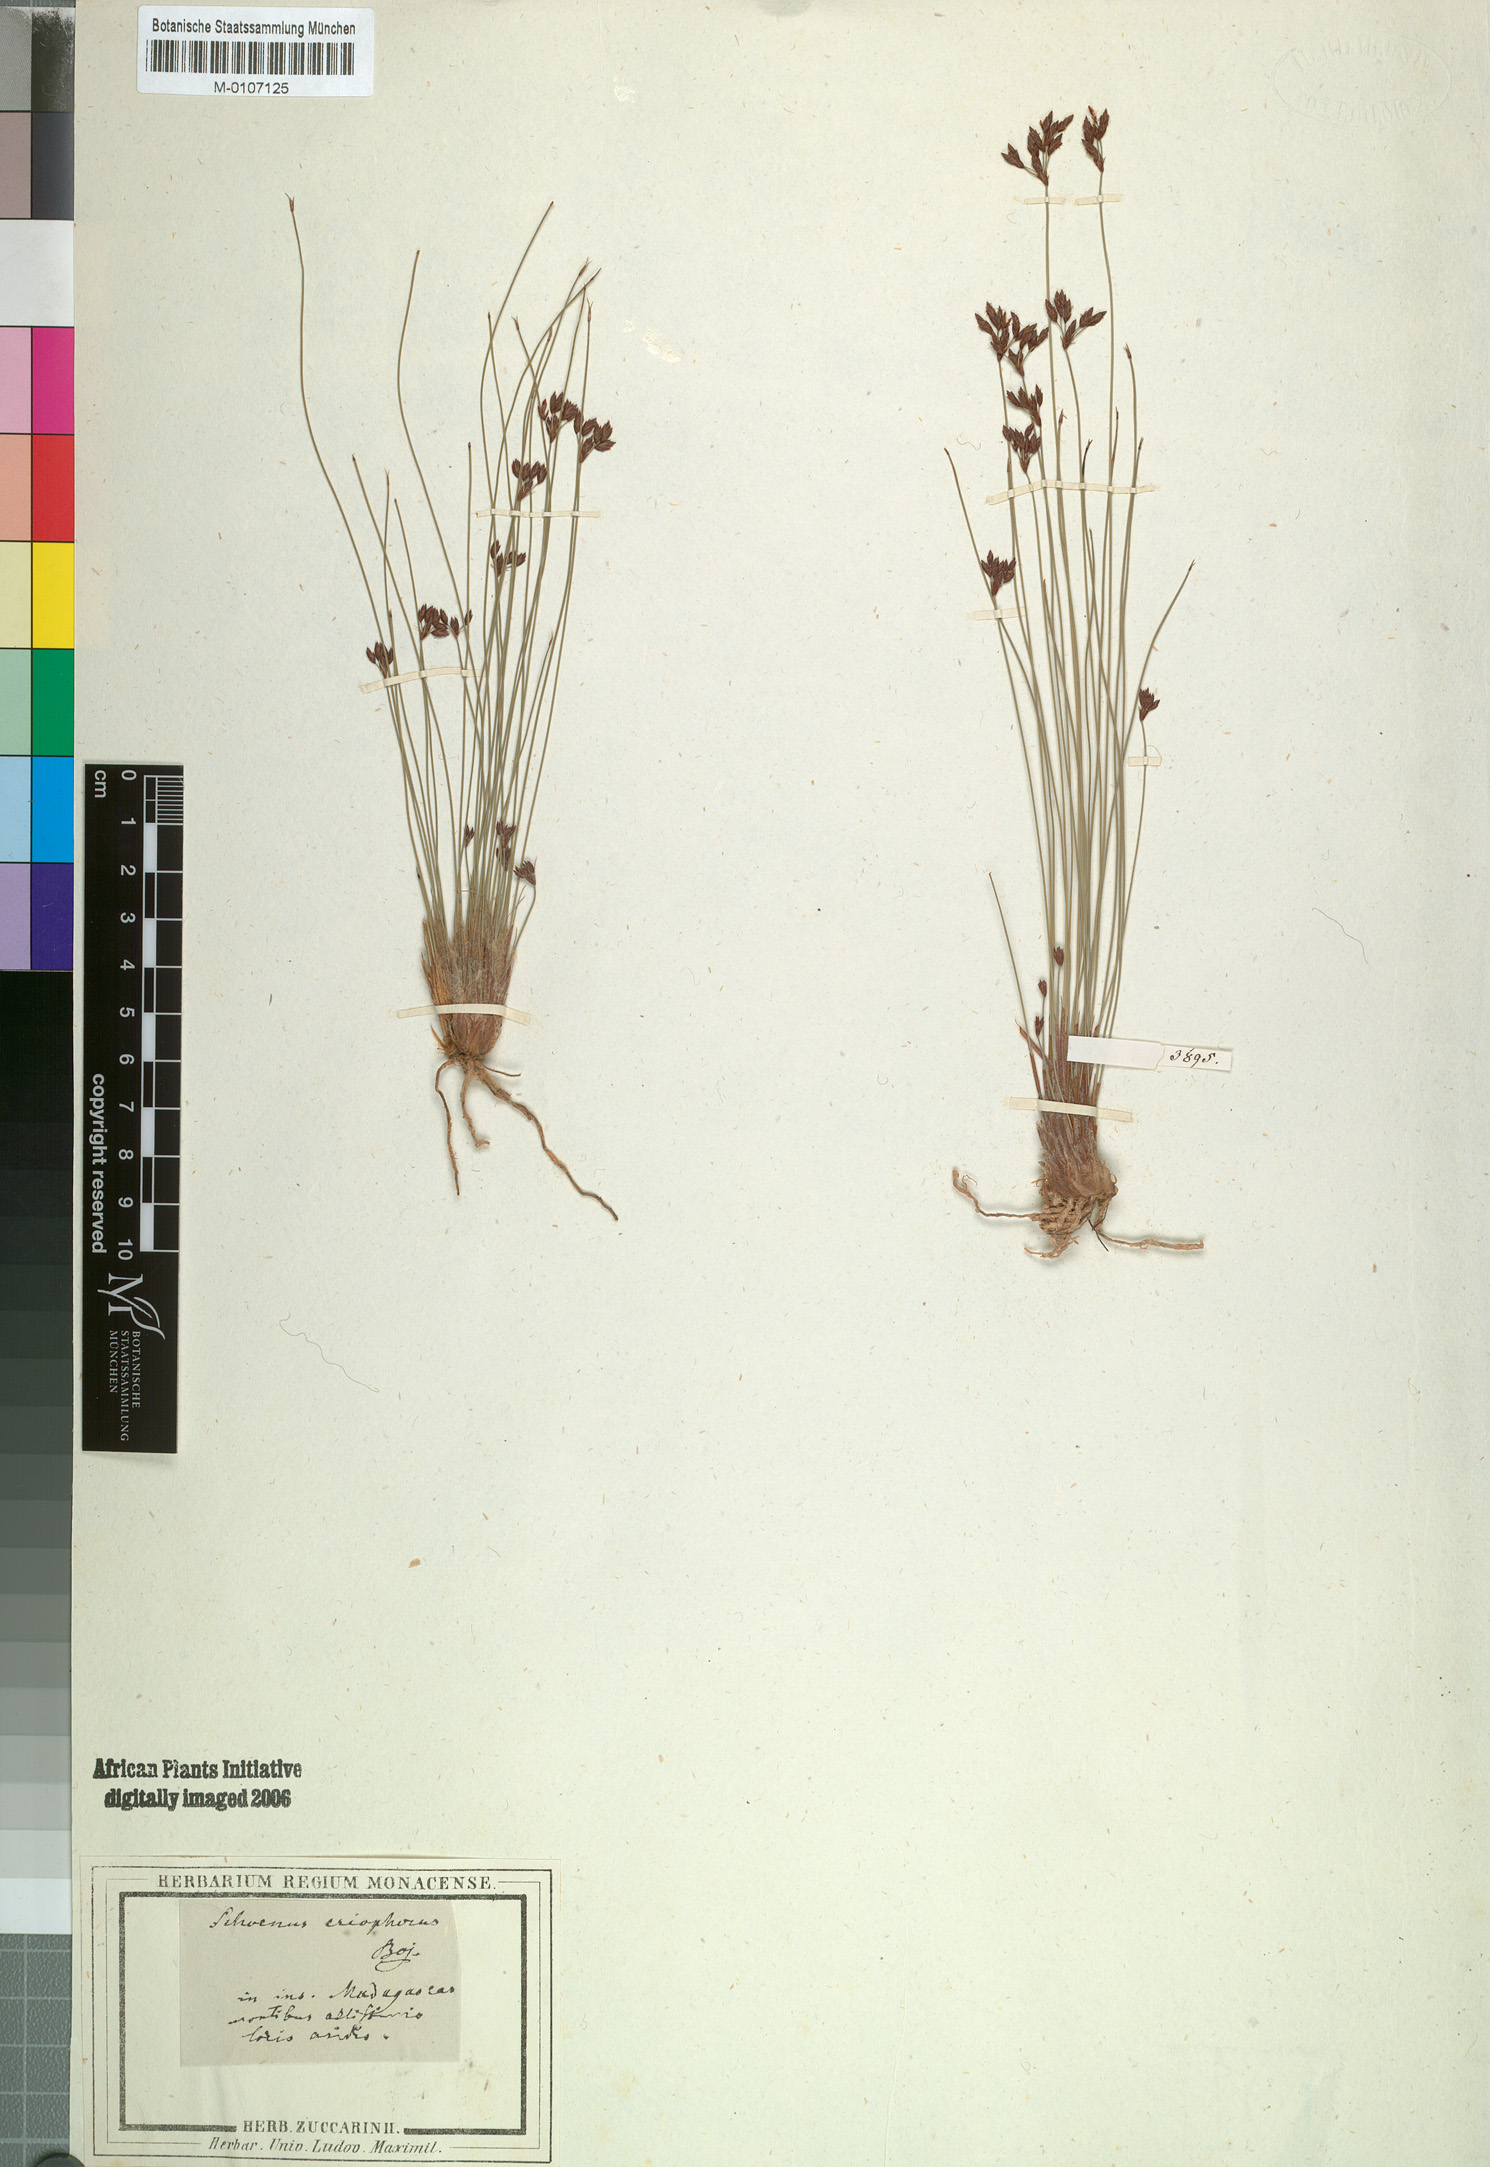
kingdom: Plantae
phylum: Tracheophyta
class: Liliopsida
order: Poales
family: Cyperaceae
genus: Bulbostylis
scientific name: Bulbostylis barbata
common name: Watergrass
